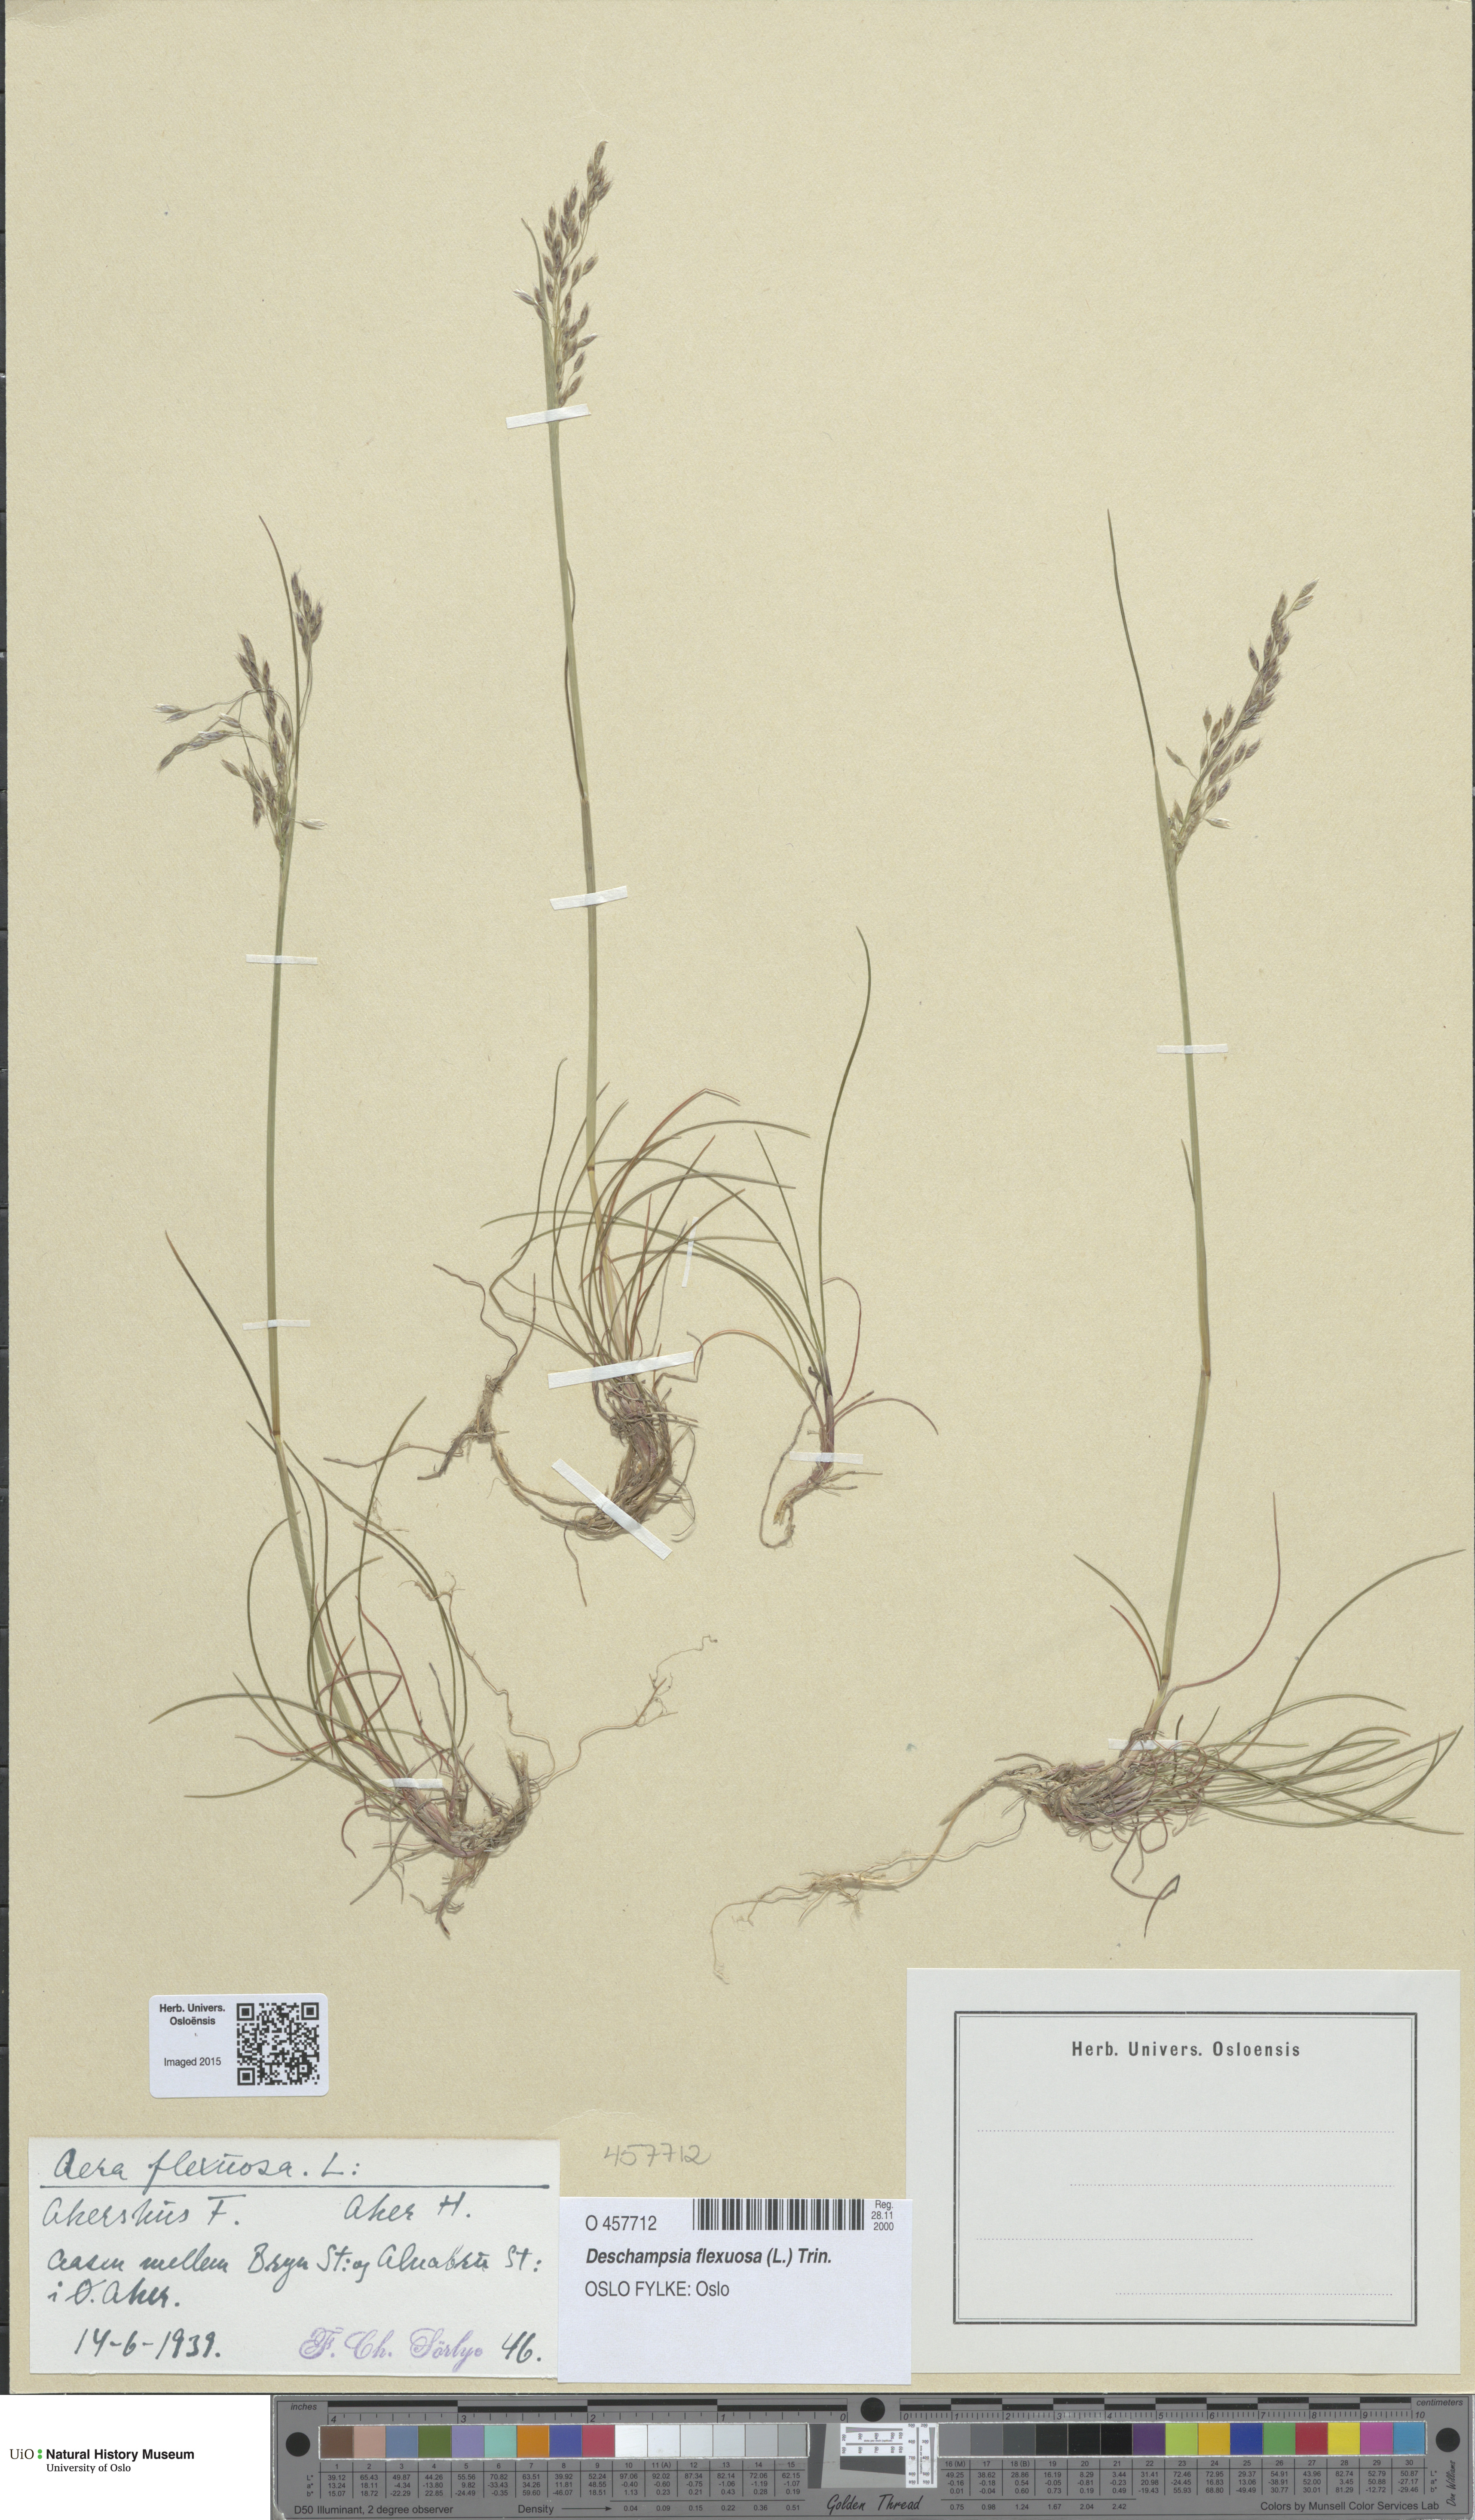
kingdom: Plantae
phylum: Tracheophyta
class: Liliopsida
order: Poales
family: Poaceae
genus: Avenella
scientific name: Avenella flexuosa
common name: Wavy hairgrass
